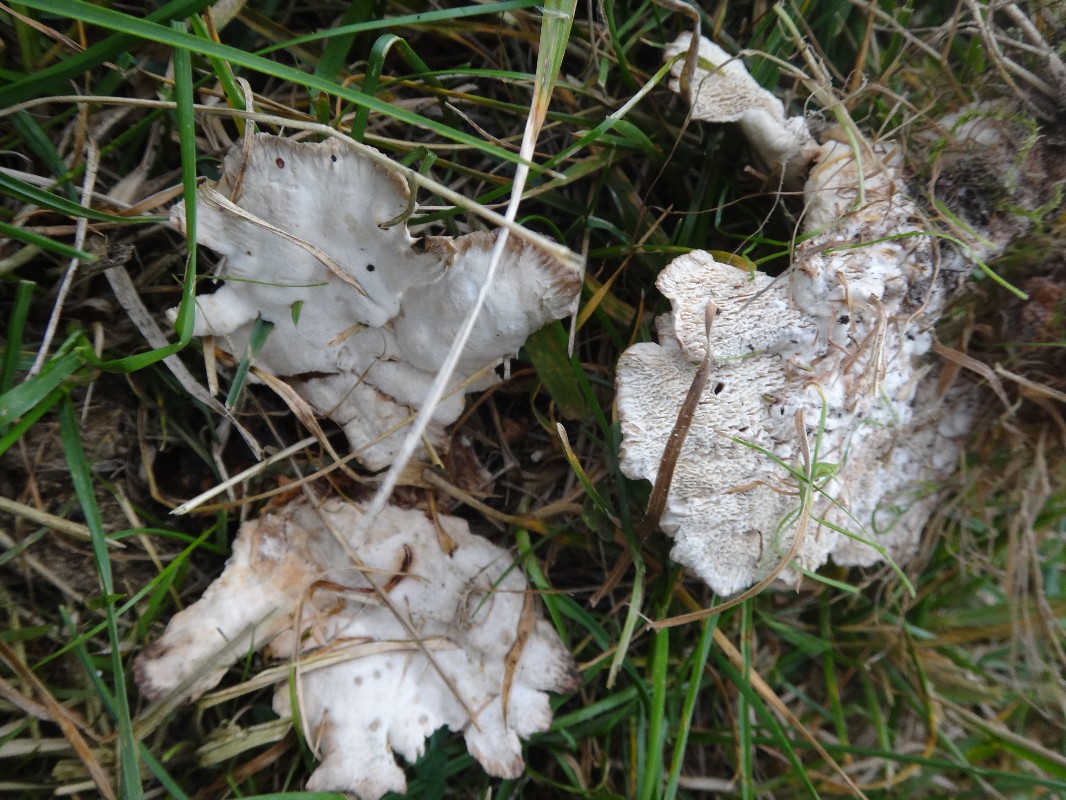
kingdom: Fungi
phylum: Basidiomycota
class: Agaricomycetes
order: Polyporales
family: Podoscyphaceae
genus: Abortiporus
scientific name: Abortiporus biennis
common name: rødmende pjalteporesvamp
